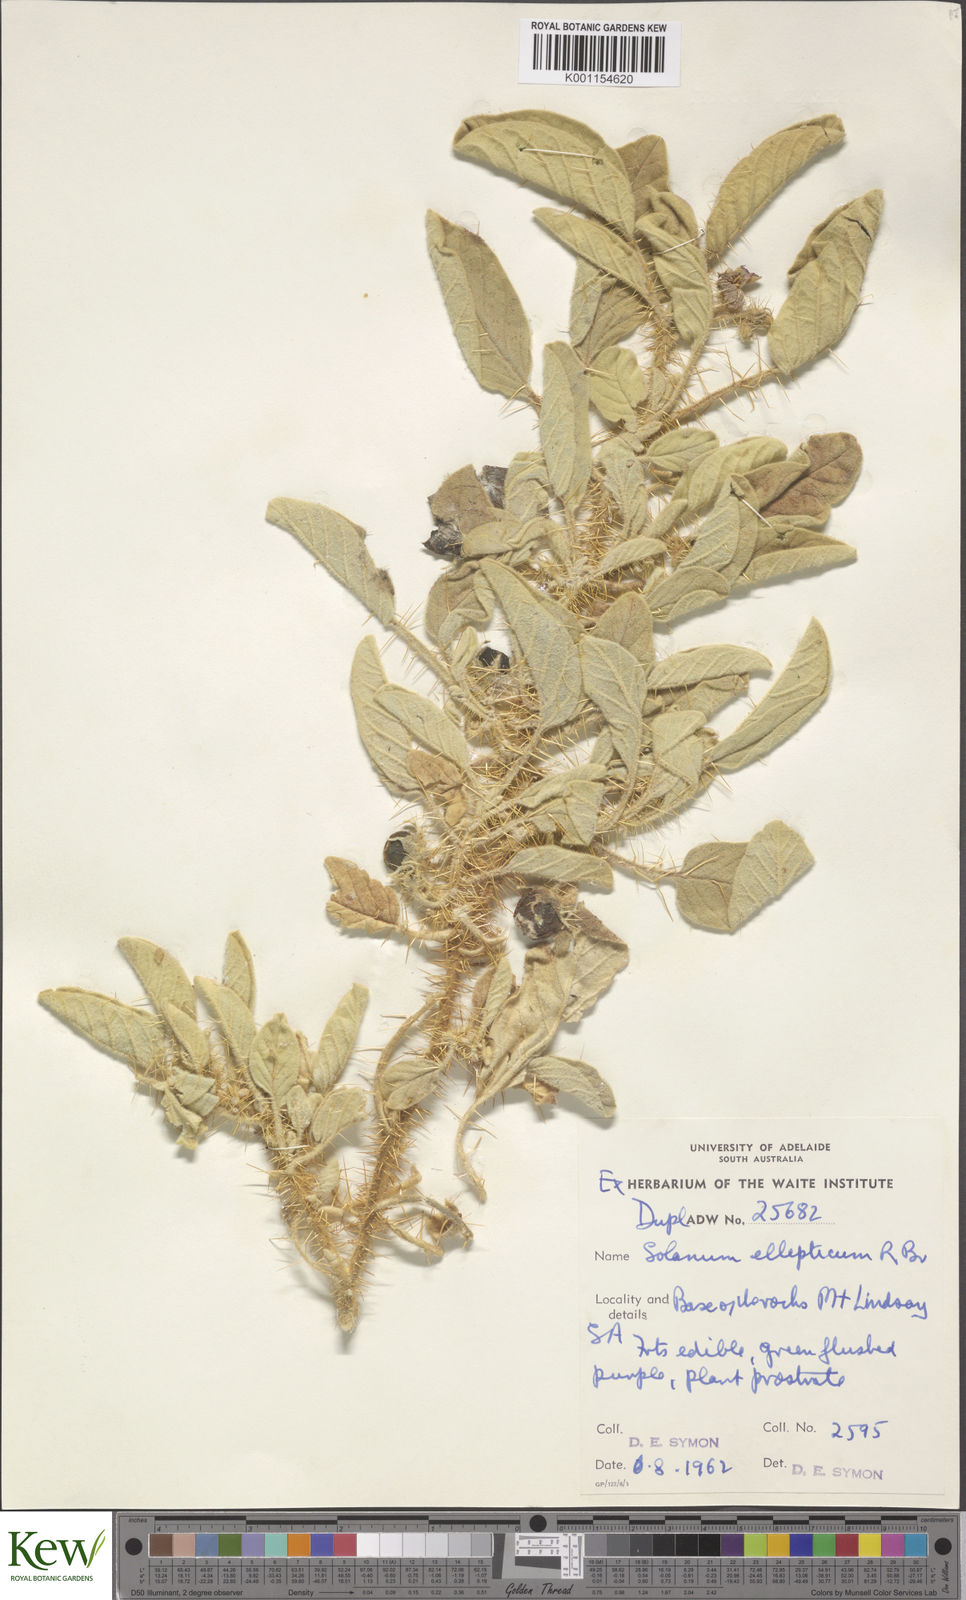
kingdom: Plantae
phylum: Tracheophyta
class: Magnoliopsida
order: Solanales
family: Solanaceae
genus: Solanum
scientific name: Solanum ellipticum
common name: Potato-bush
